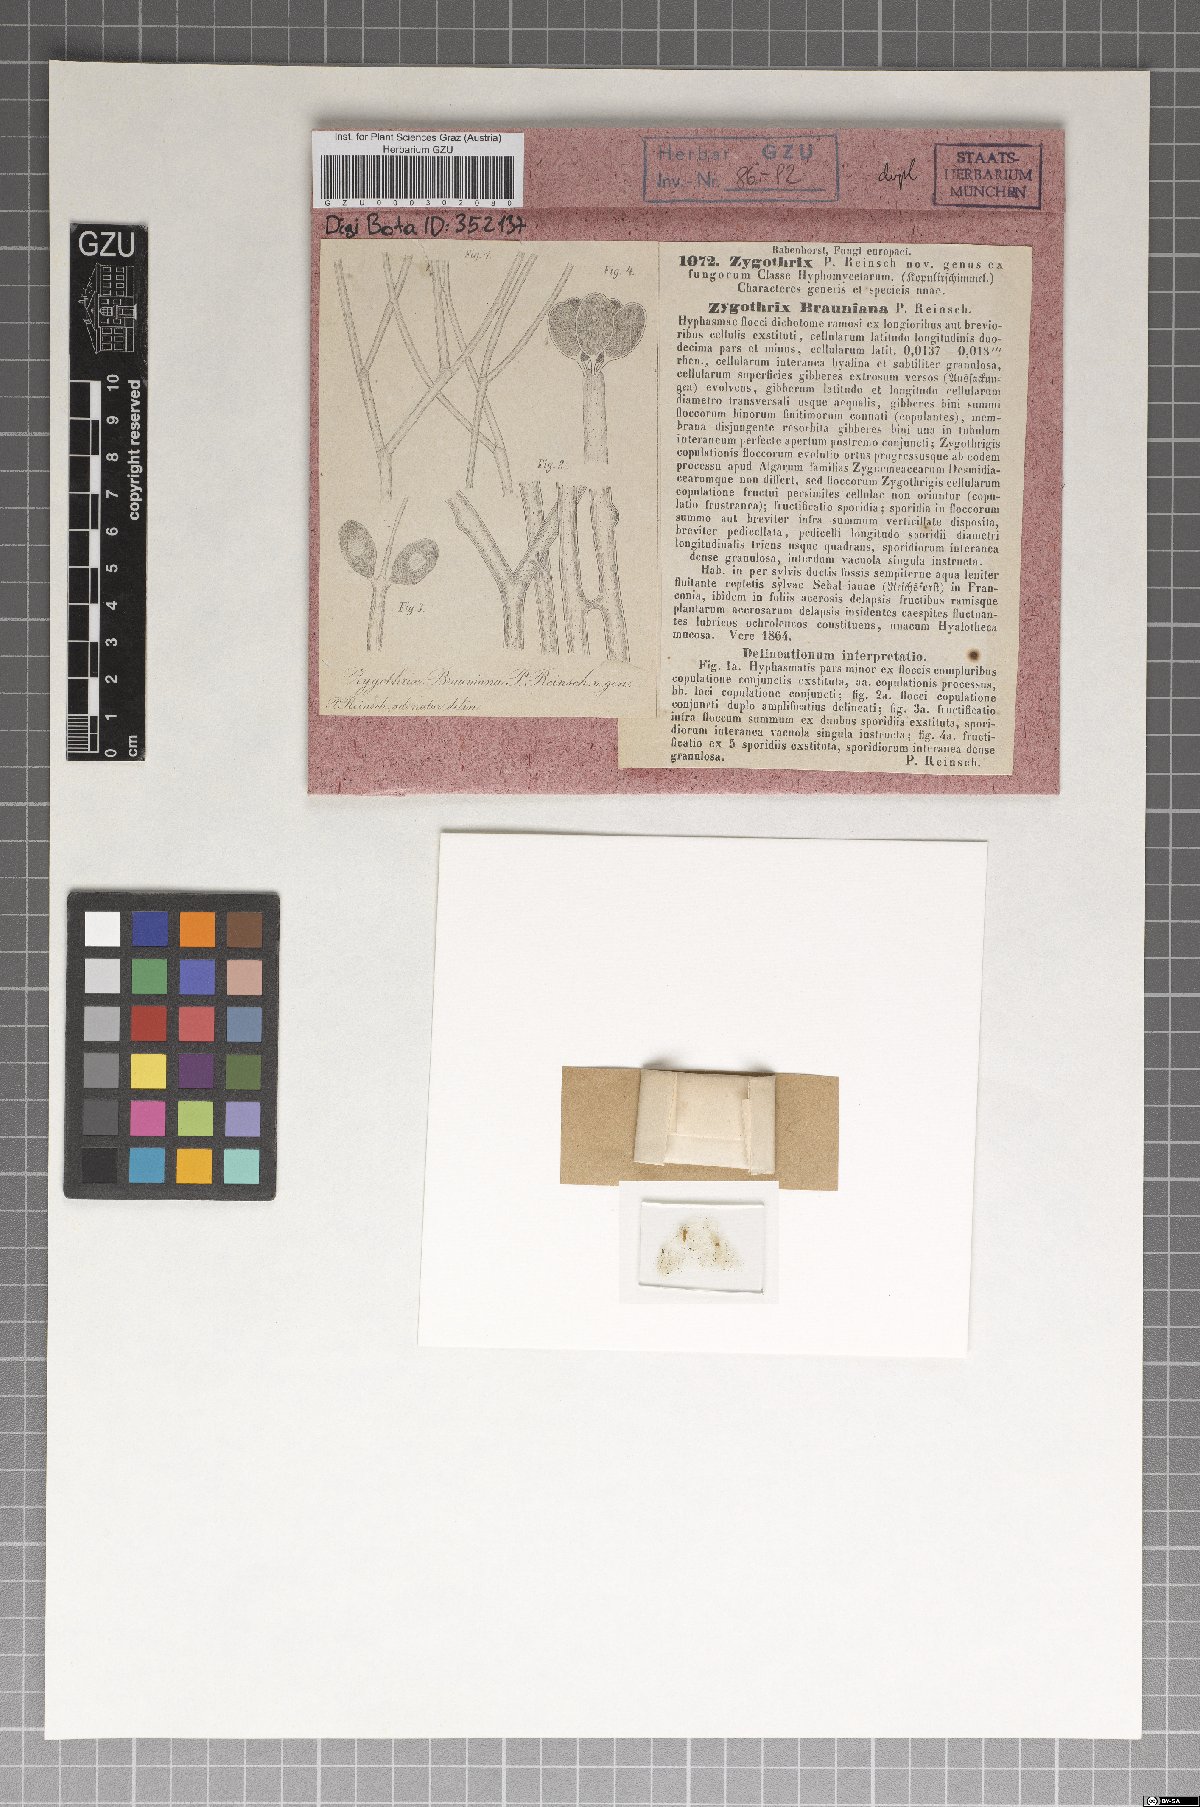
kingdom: Chromista
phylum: Oomycota
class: Peronosporea
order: Saprolegniales
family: Saprolegniaceae
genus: Newbya
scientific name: Newbya androgyna
